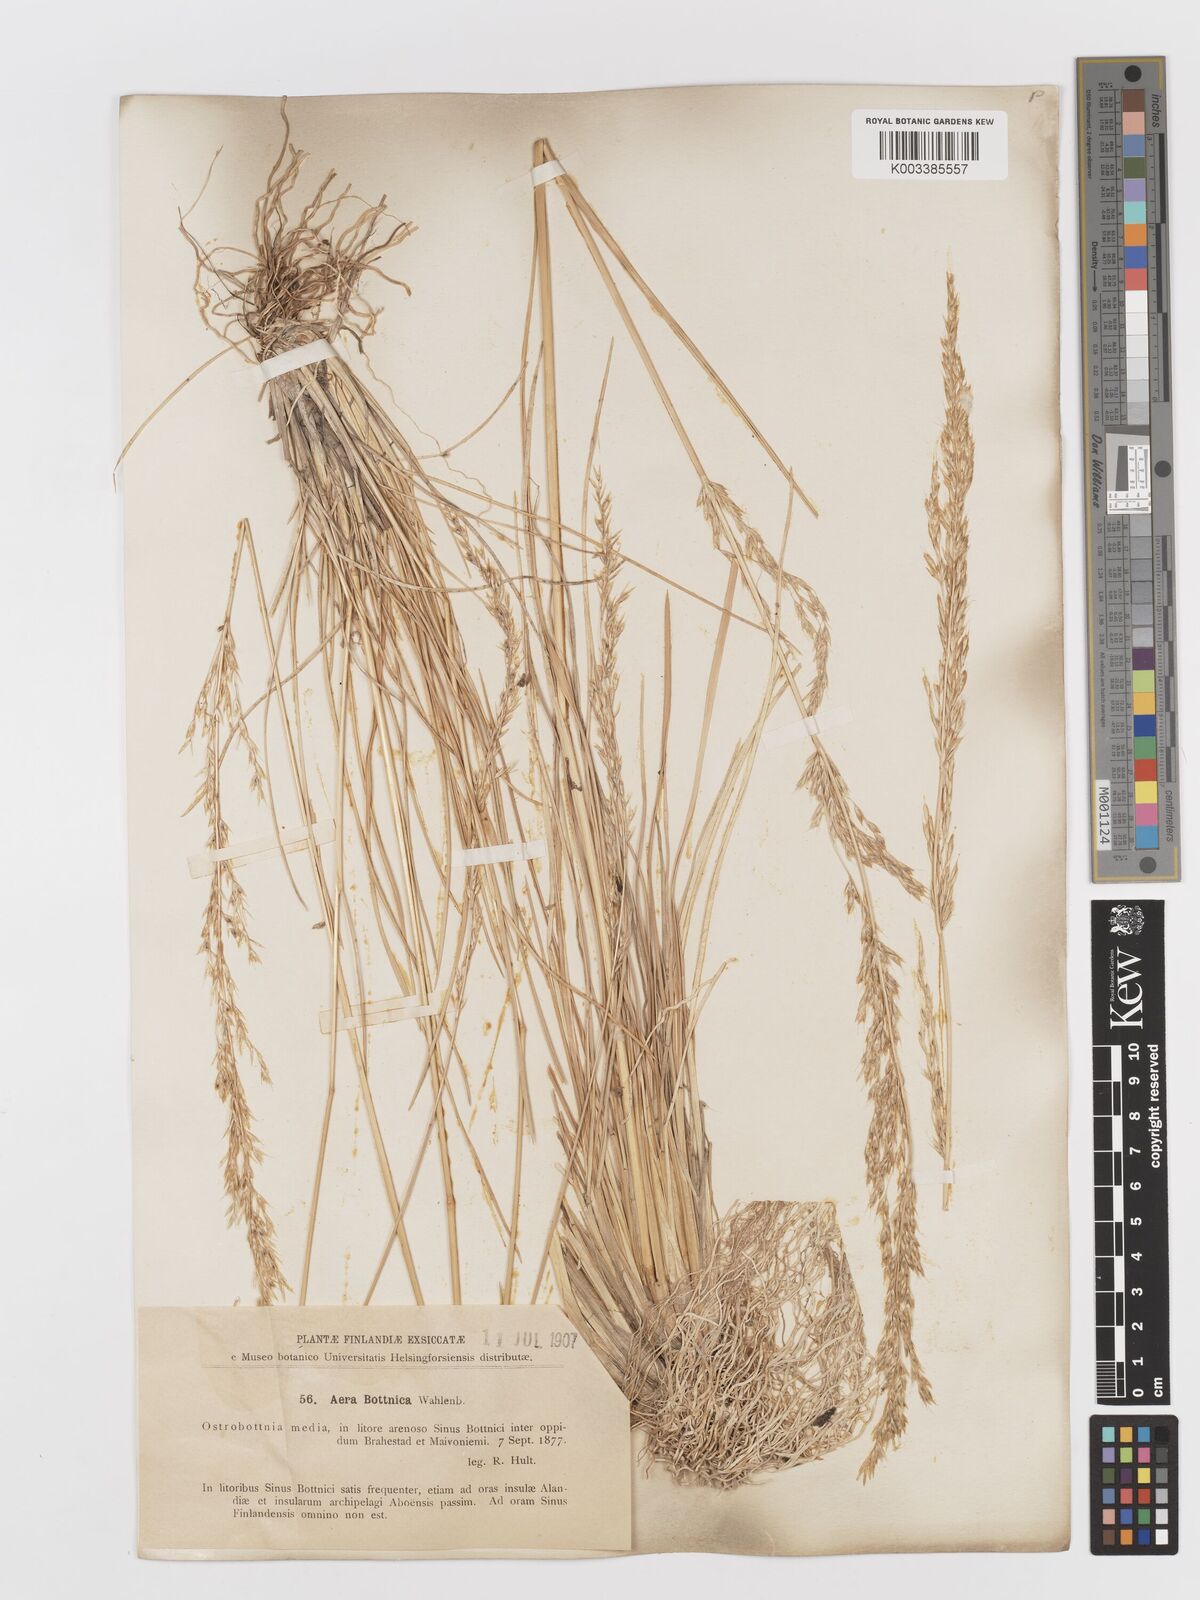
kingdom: Plantae
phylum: Tracheophyta
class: Liliopsida
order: Poales
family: Poaceae
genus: Deschampsia
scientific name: Deschampsia cespitosa
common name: Tufted hair-grass
